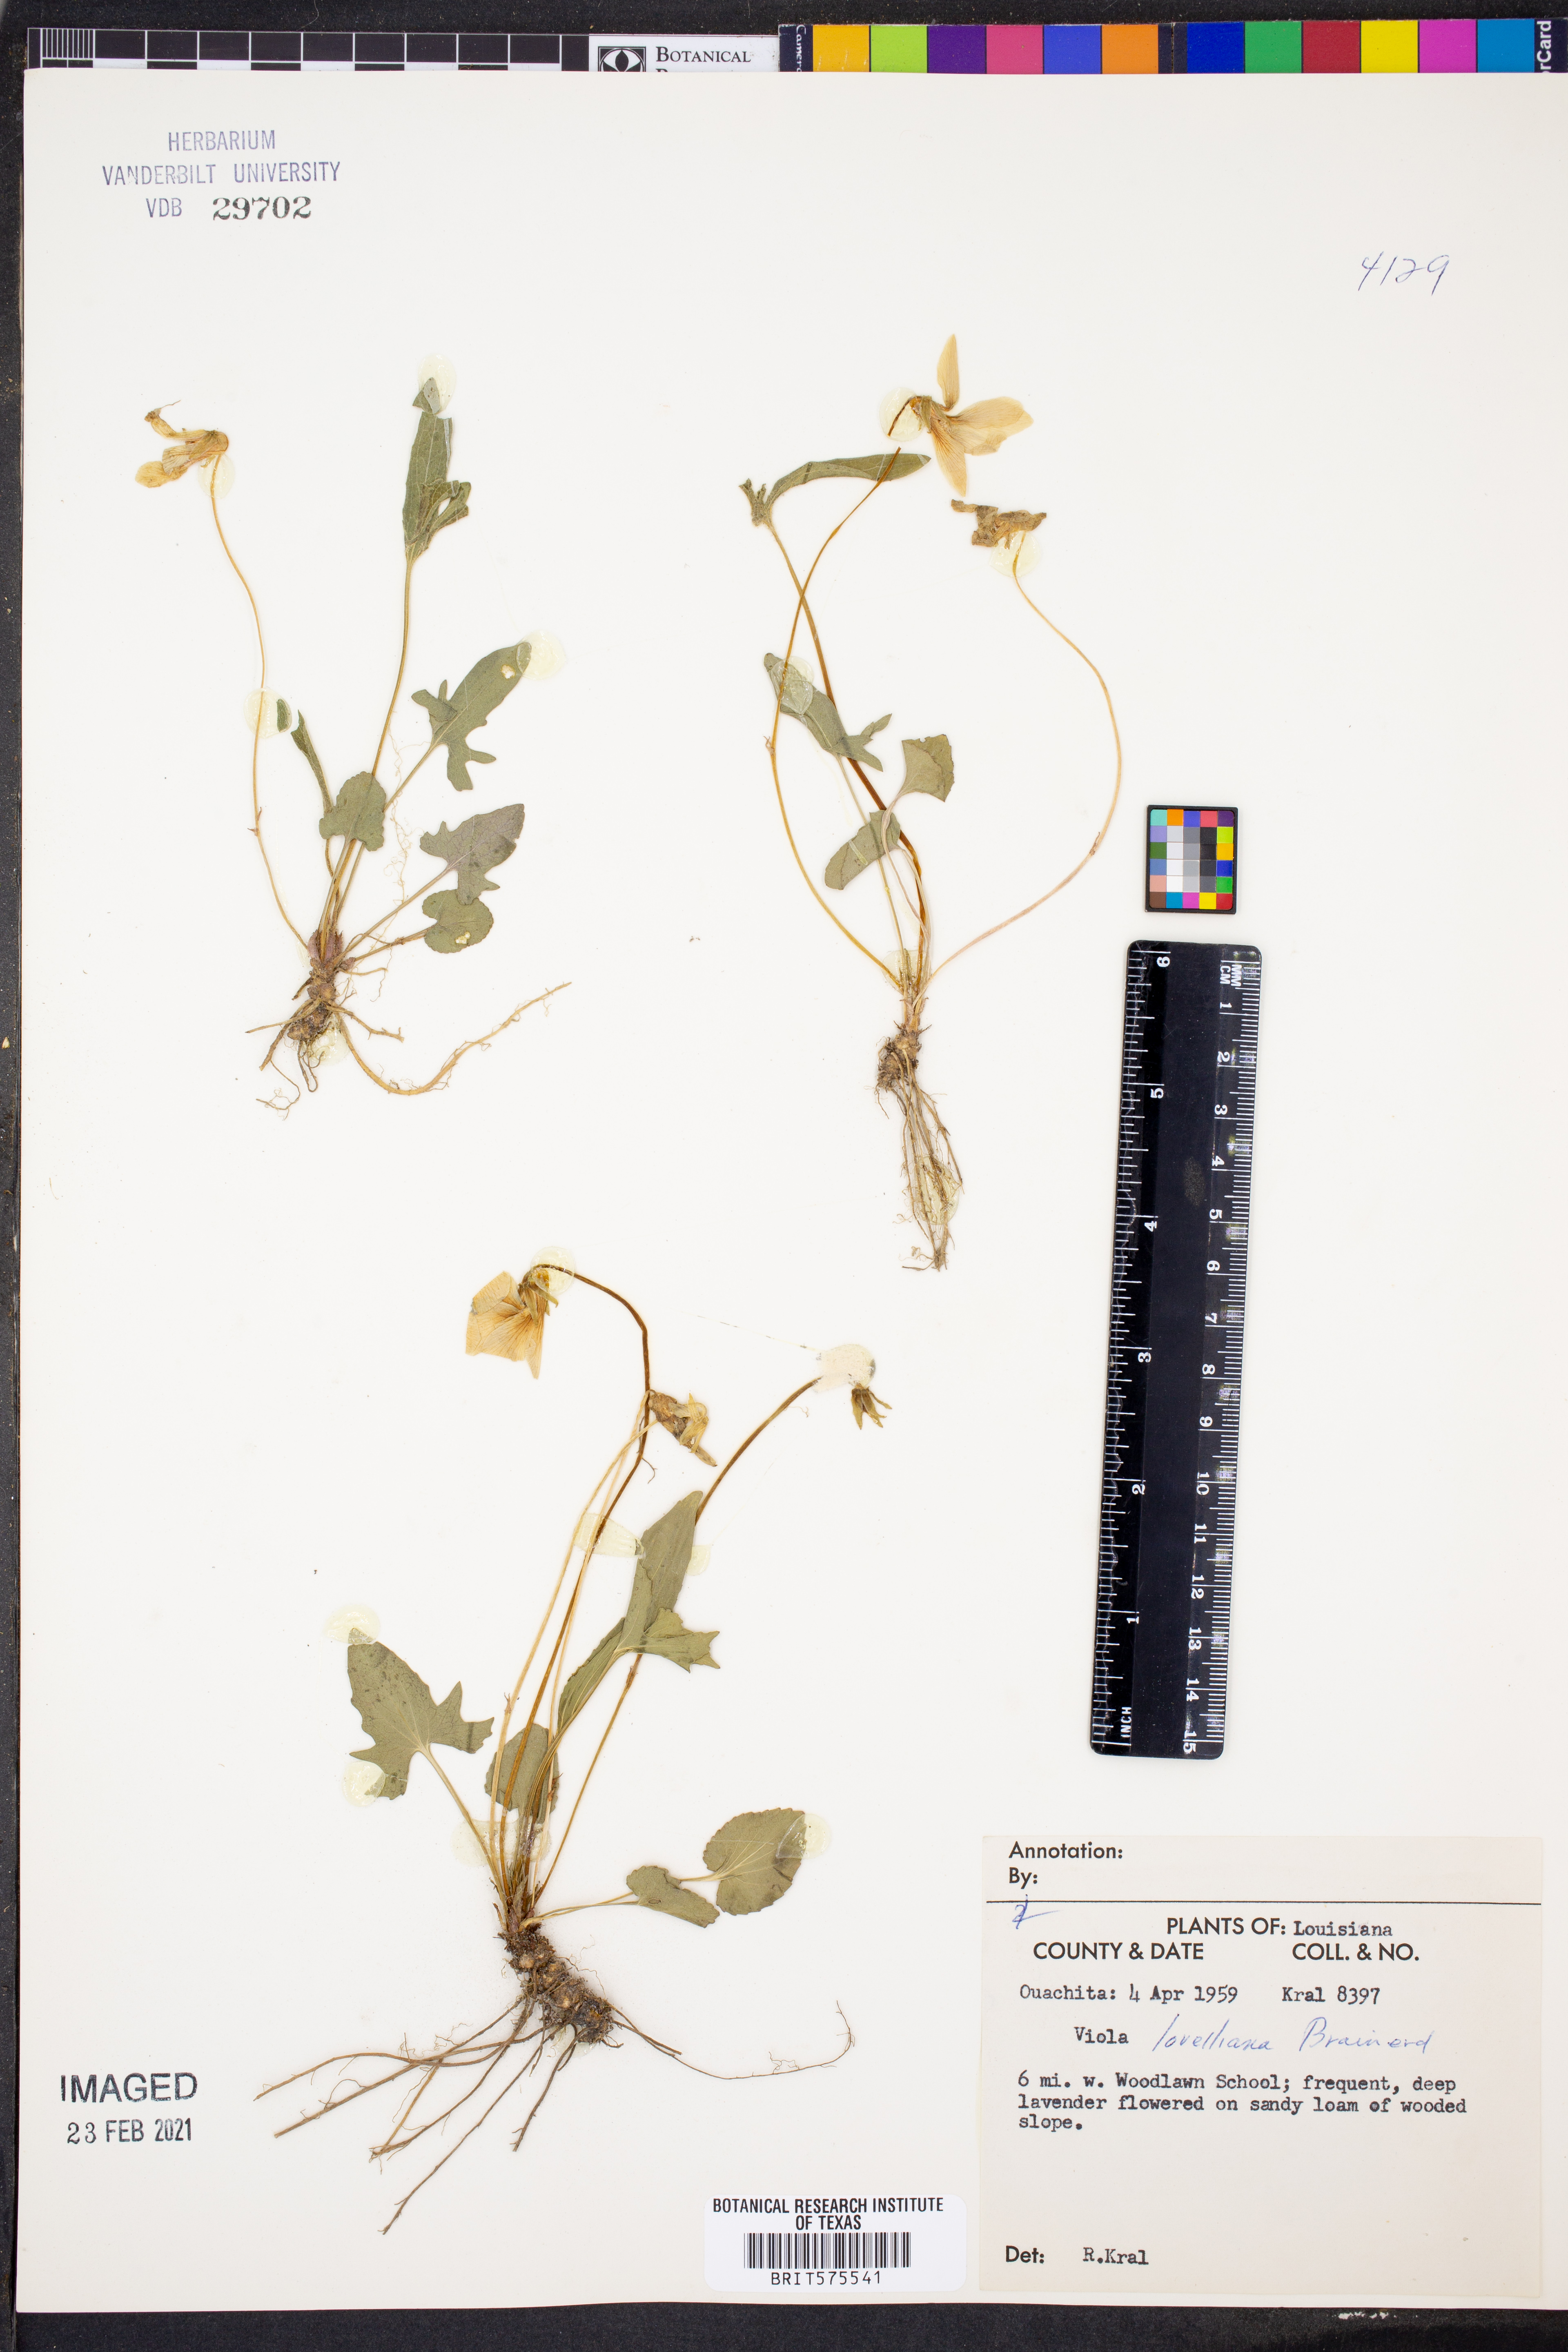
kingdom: Plantae
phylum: Tracheophyta
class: Magnoliopsida
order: Malpighiales
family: Violaceae
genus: Viola
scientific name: Viola lovelliana
